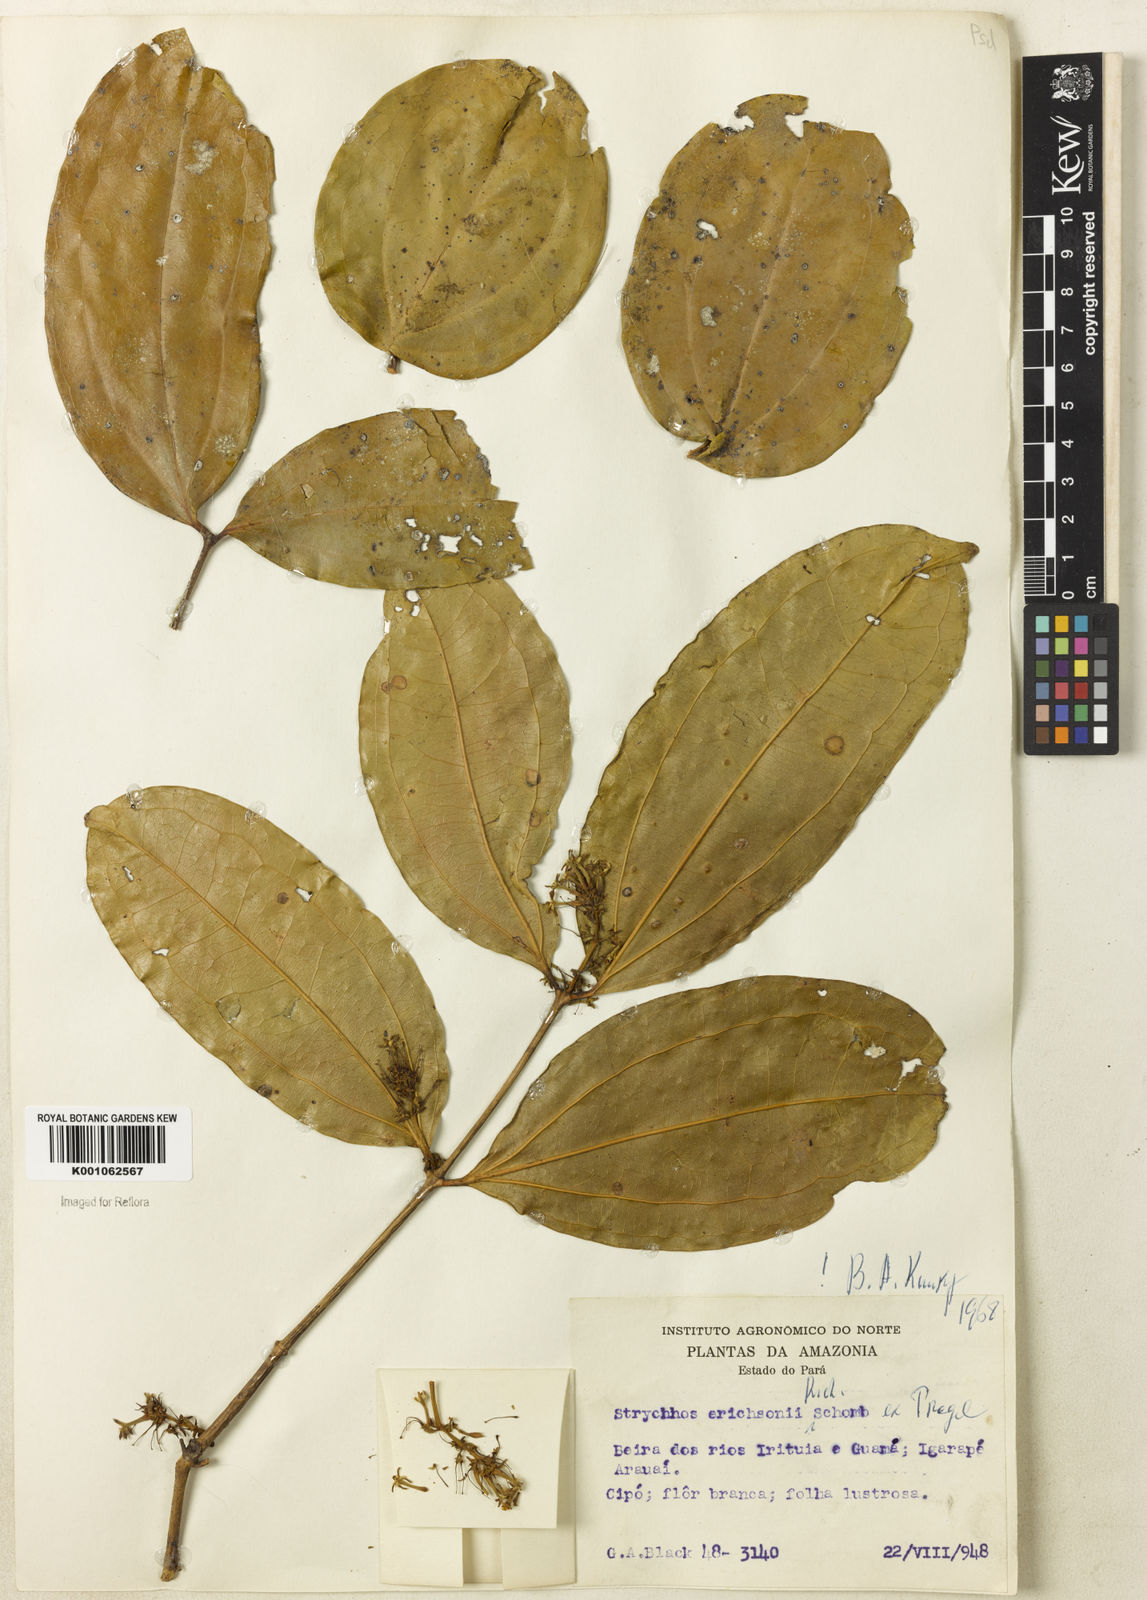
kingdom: Plantae
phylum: Tracheophyta
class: Magnoliopsida
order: Gentianales
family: Loganiaceae
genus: Strychnos
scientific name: Strychnos erichsonii
